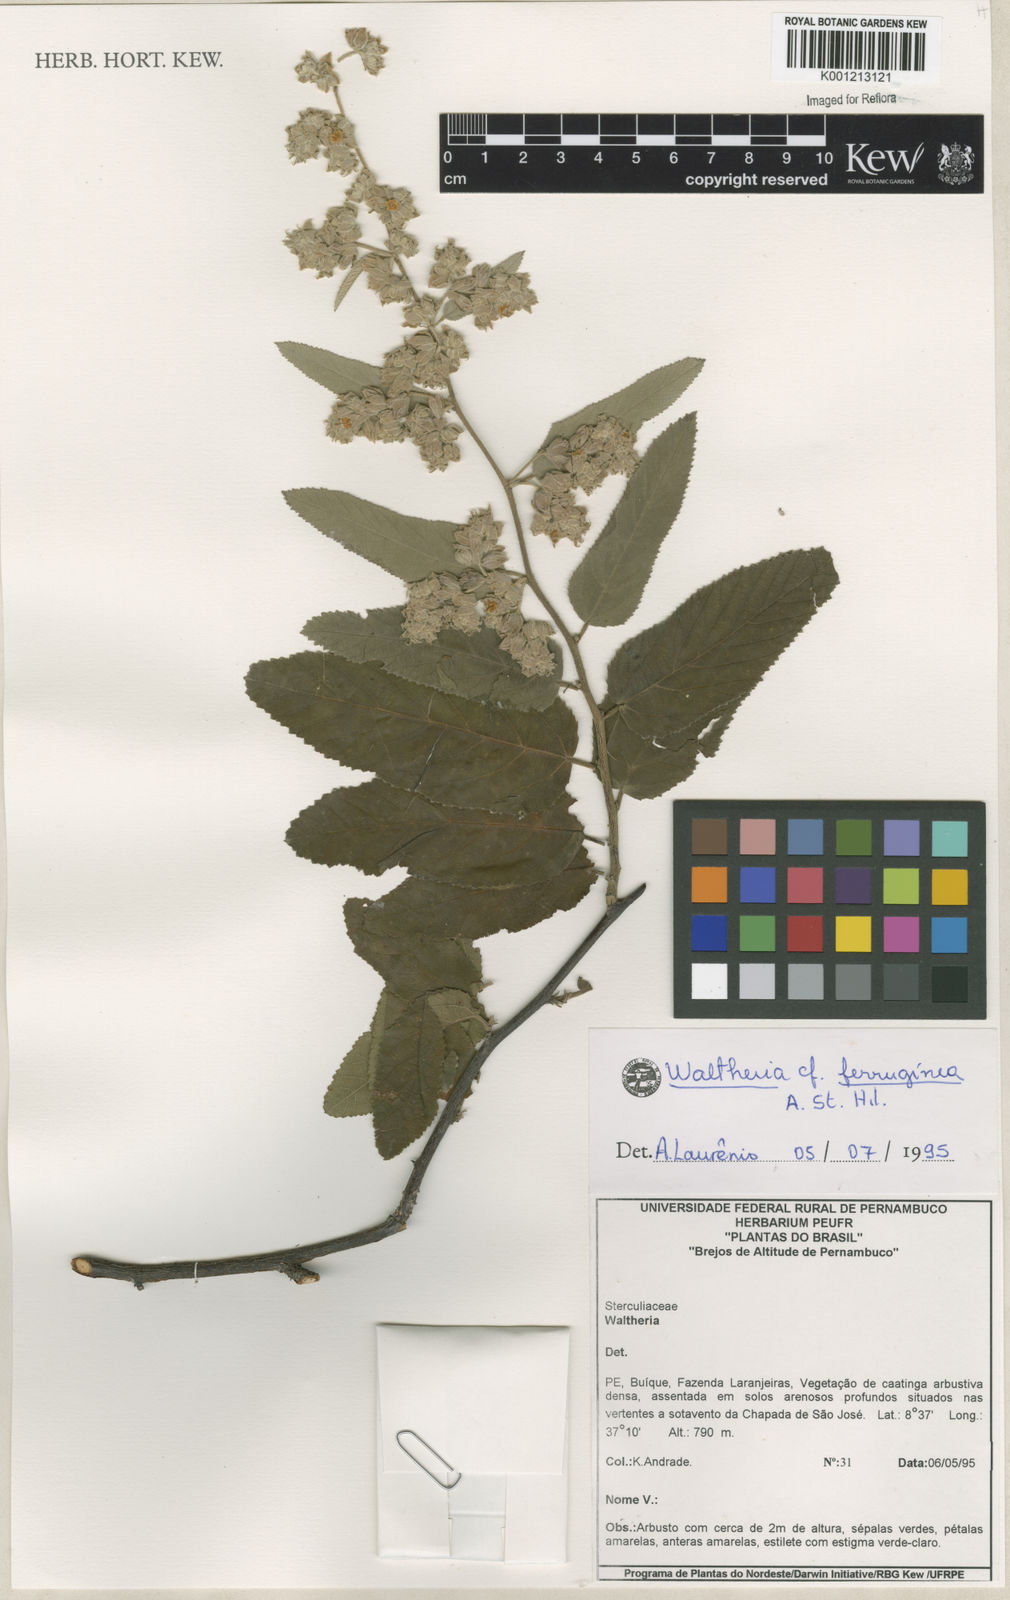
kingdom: Plantae
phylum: Tracheophyta
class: Magnoliopsida
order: Malvales
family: Malvaceae
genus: Waltheria
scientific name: Waltheria ferruginea
